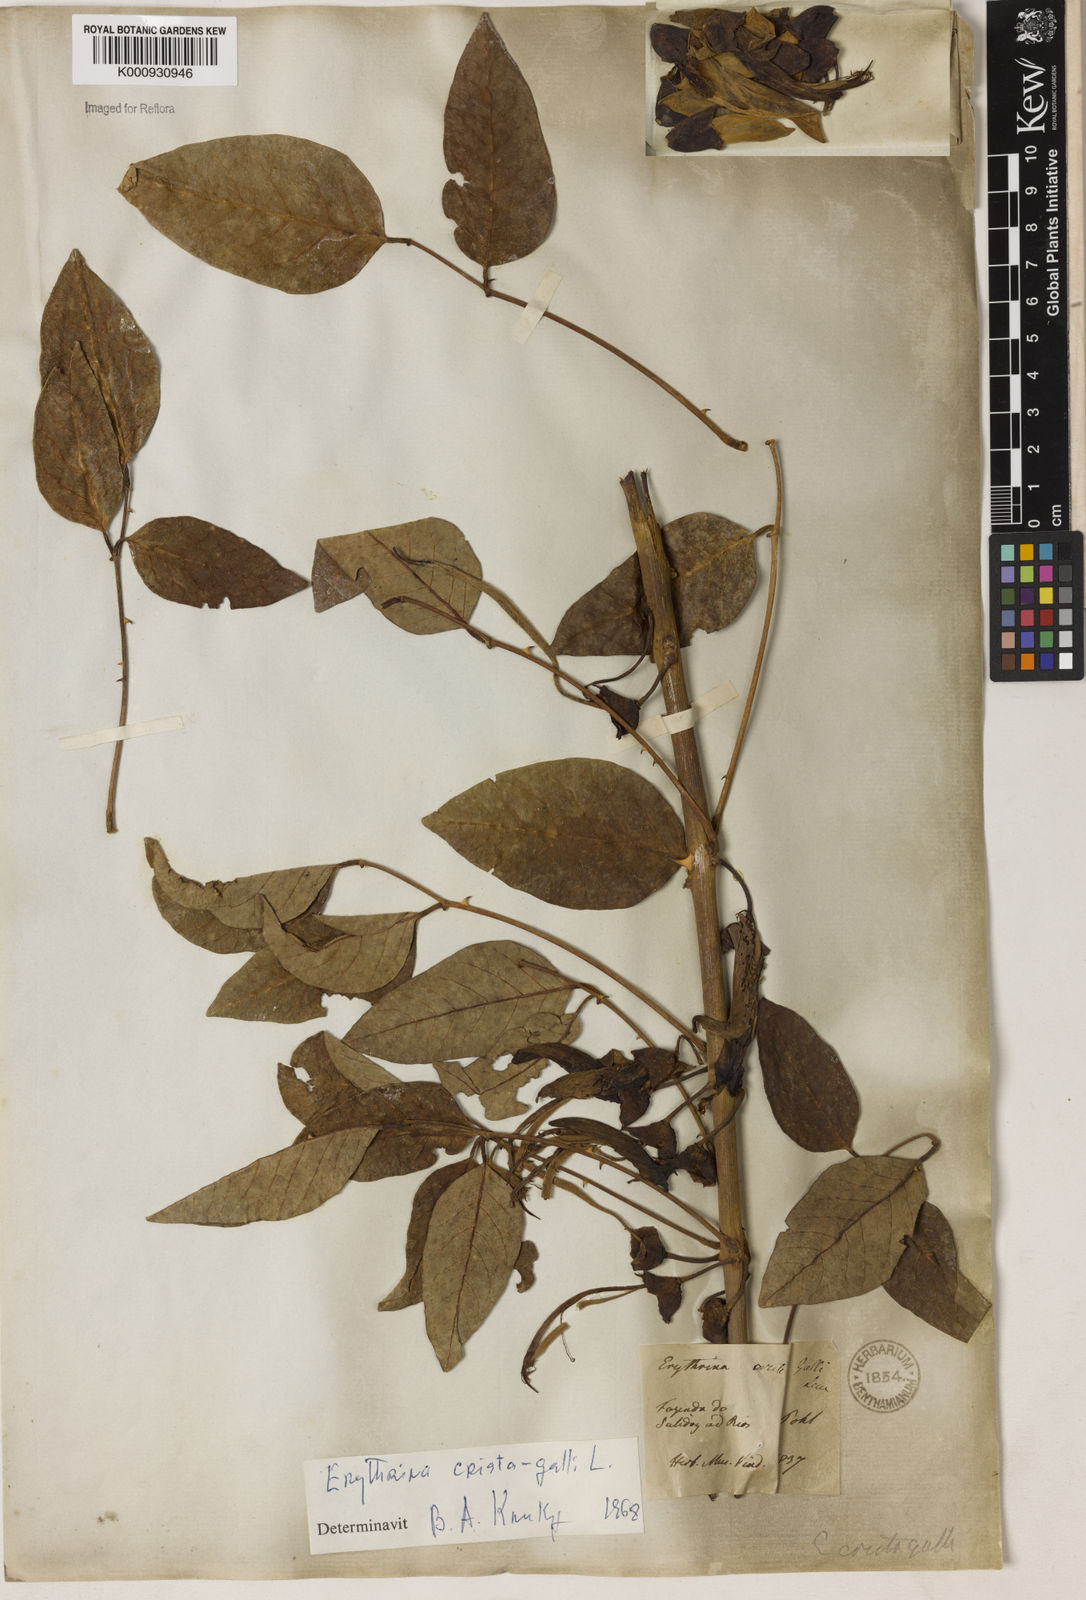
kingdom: Plantae
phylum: Tracheophyta
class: Magnoliopsida
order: Fabales
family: Fabaceae
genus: Erythrina
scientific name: Erythrina crista-galli
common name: Cockspur coral tree
